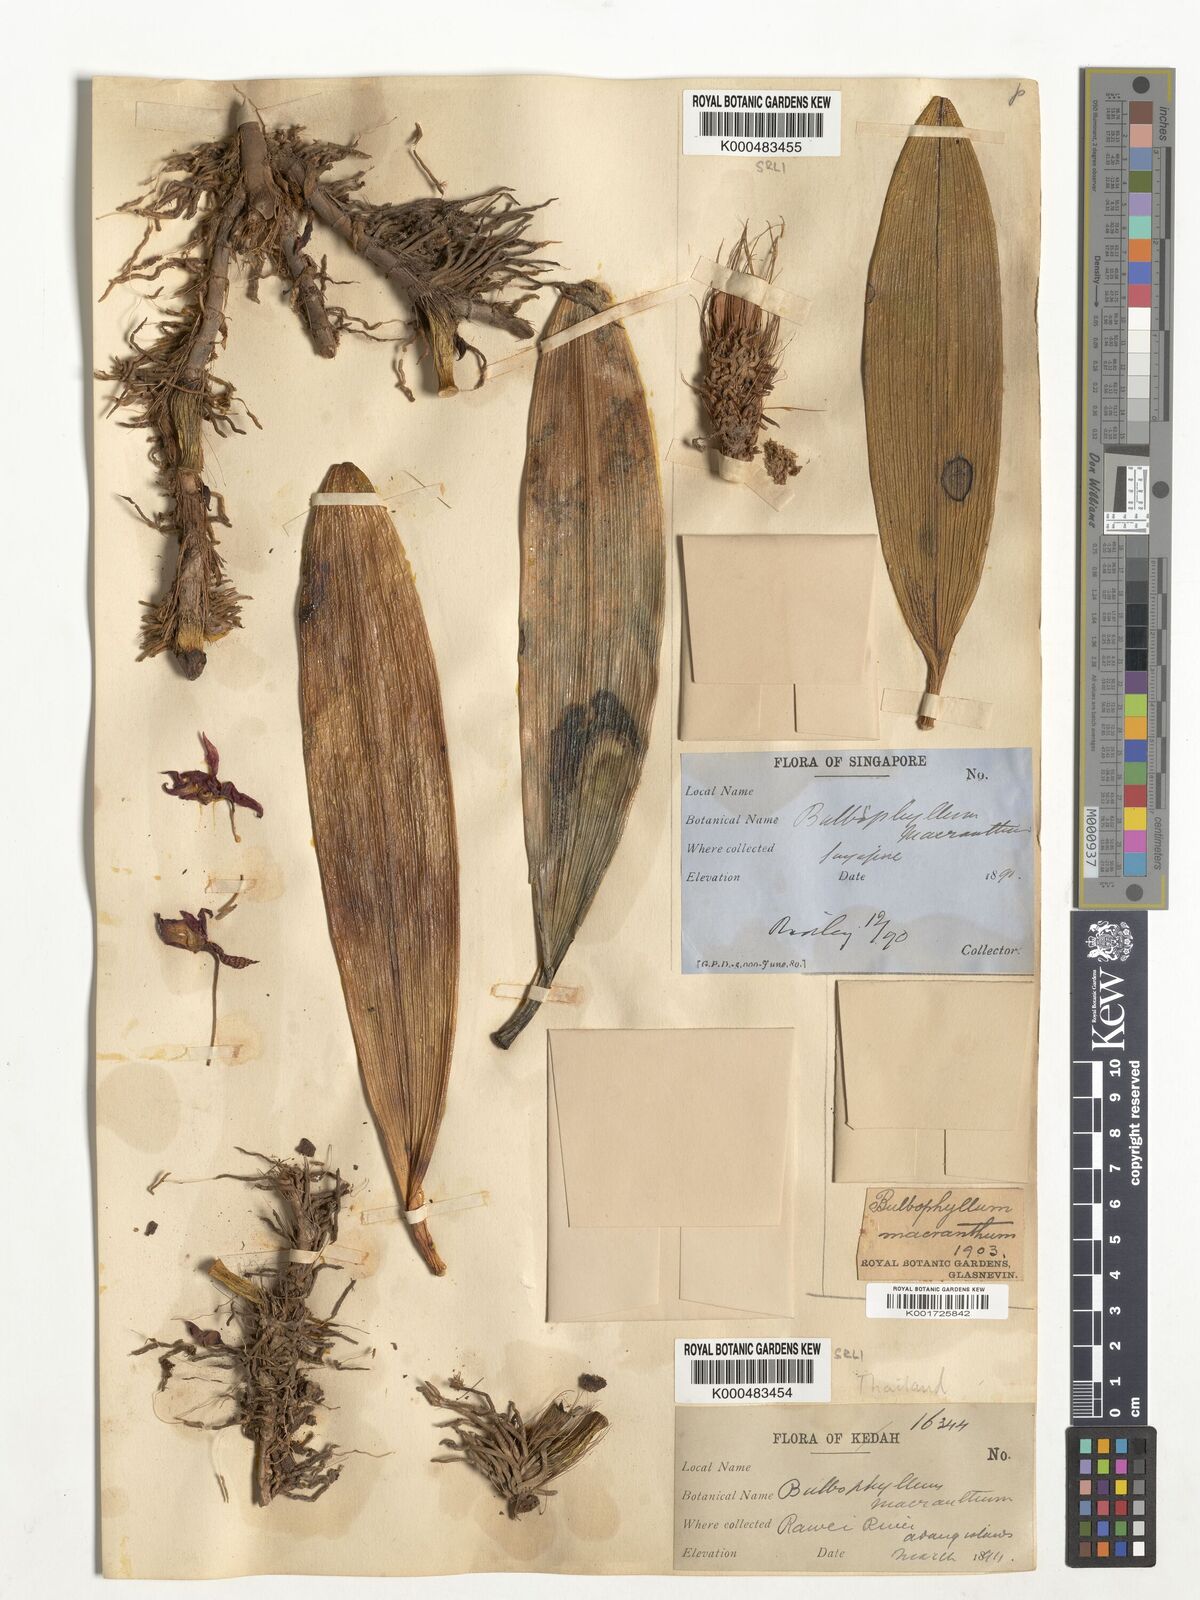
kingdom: Plantae
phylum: Tracheophyta
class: Liliopsida
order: Asparagales
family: Orchidaceae
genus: Bulbophyllum
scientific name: Bulbophyllum macranthum
